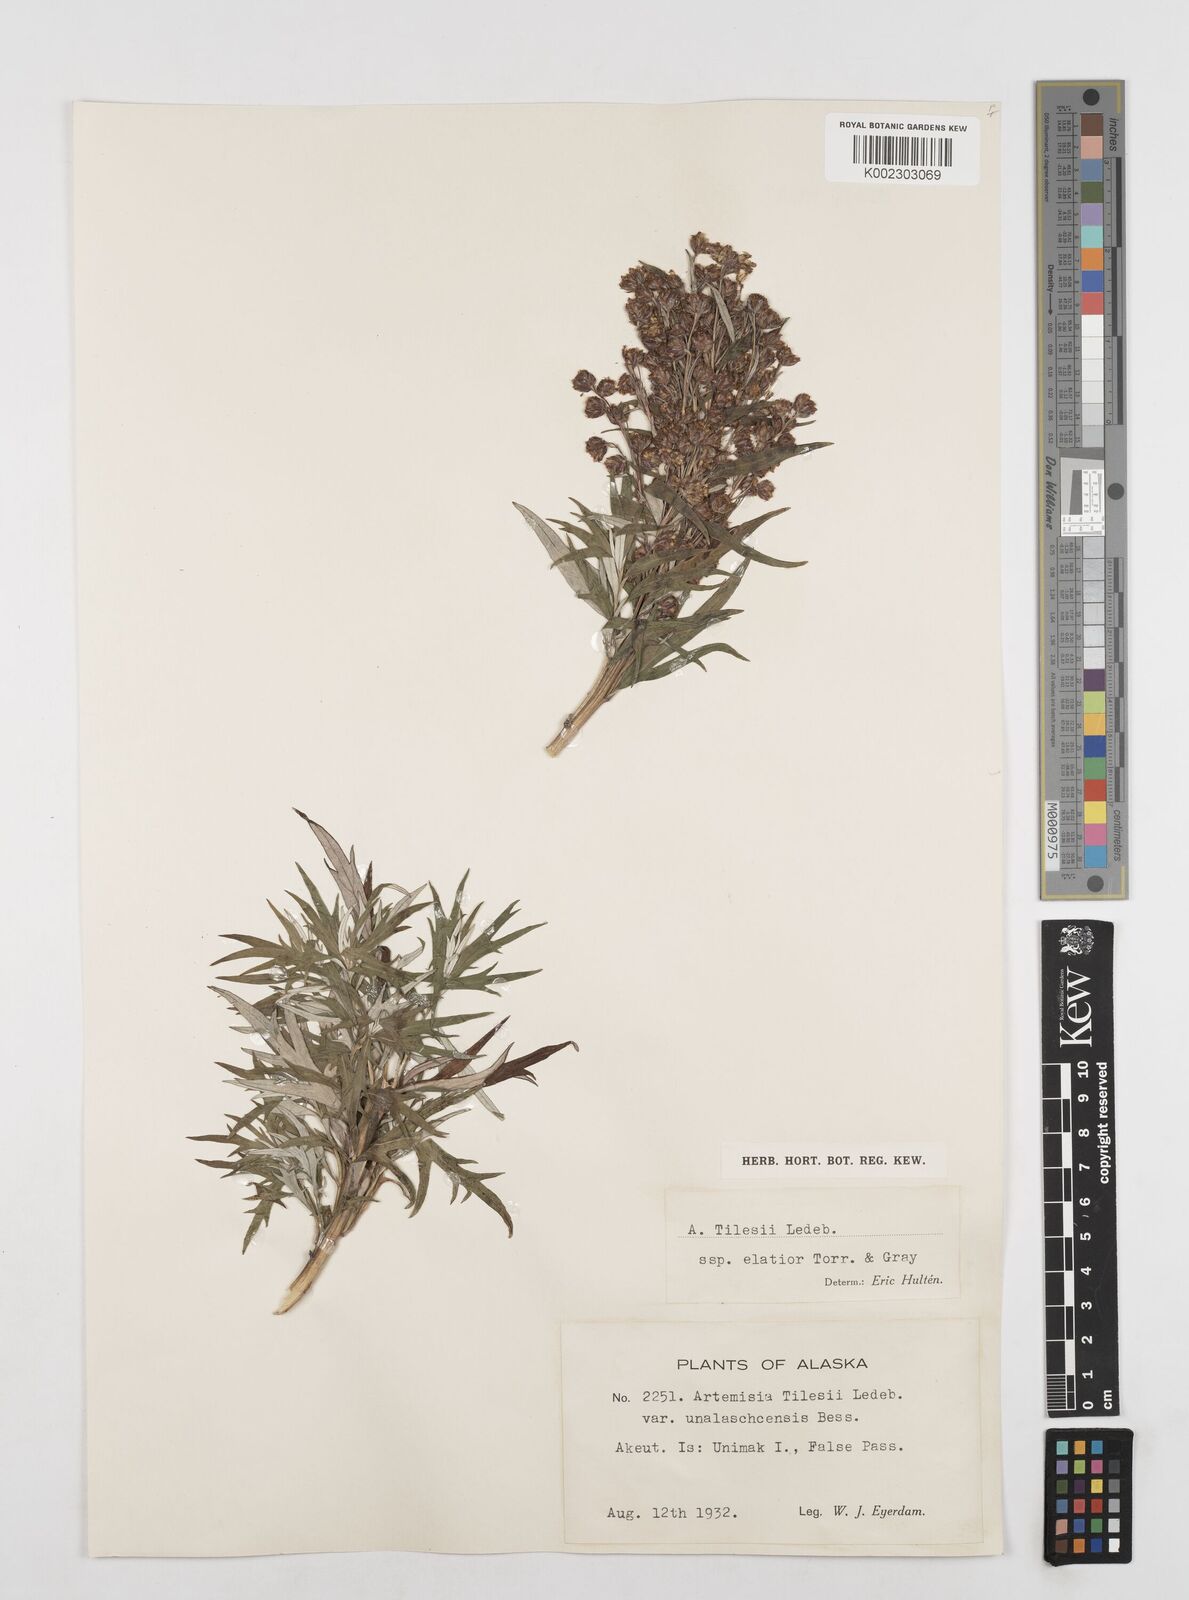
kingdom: Plantae
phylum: Tracheophyta
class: Magnoliopsida
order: Asterales
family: Asteraceae
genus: Artemisia
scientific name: Artemisia tilesii
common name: Aleutian mugwort
